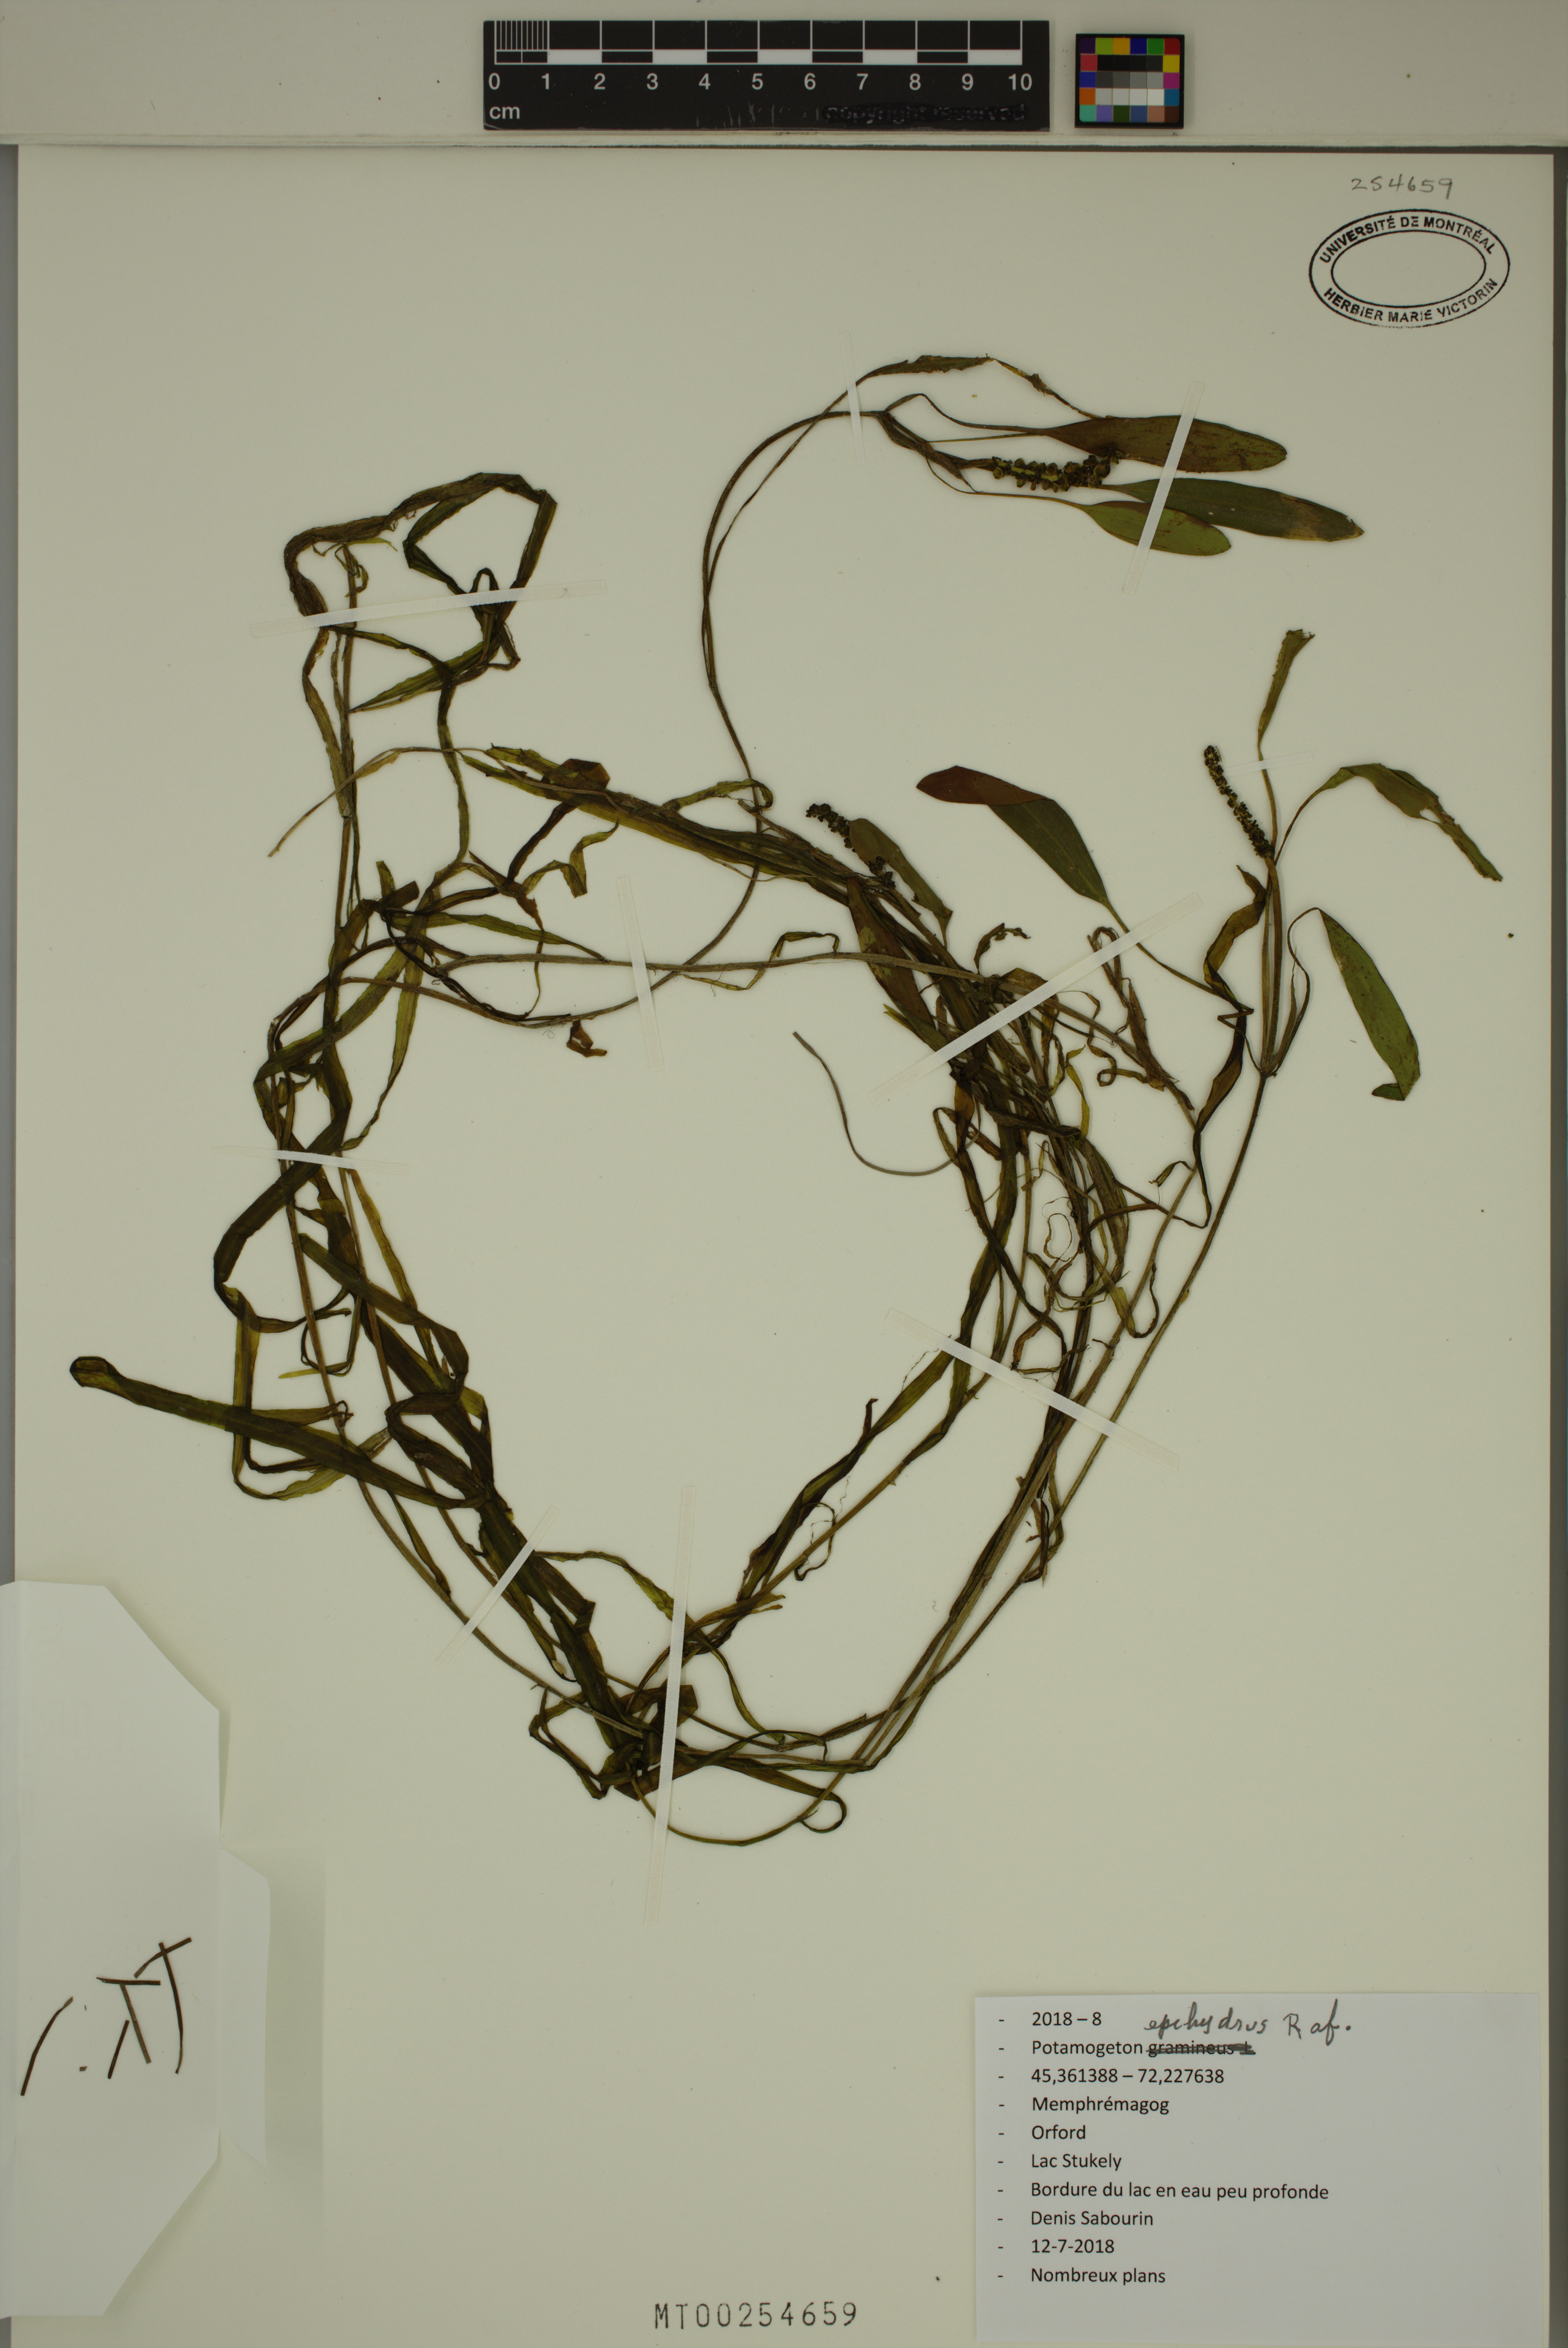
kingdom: Plantae
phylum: Tracheophyta
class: Liliopsida
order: Alismatales
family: Potamogetonaceae
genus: Potamogeton
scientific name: Potamogeton epihydrus
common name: American pondweed
